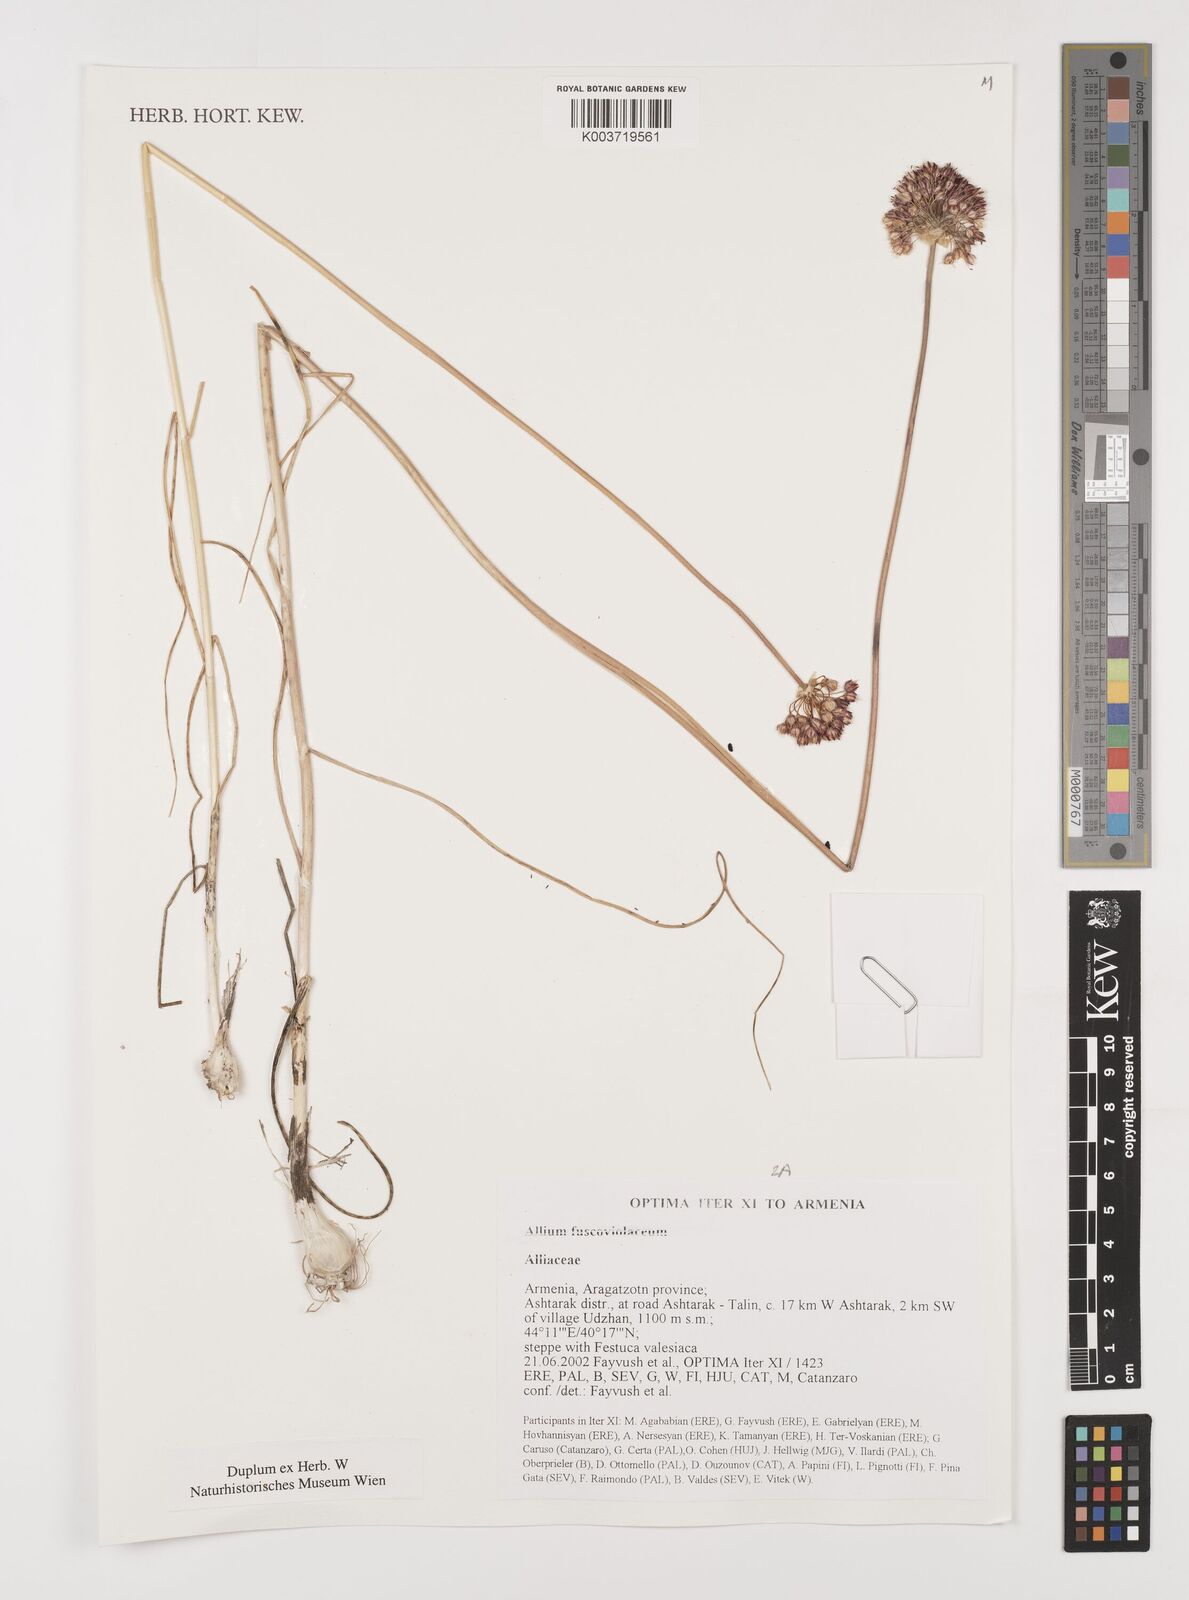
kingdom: Plantae
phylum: Tracheophyta
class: Liliopsida
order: Asparagales
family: Amaryllidaceae
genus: Allium
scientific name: Allium fuscoviolaceum
